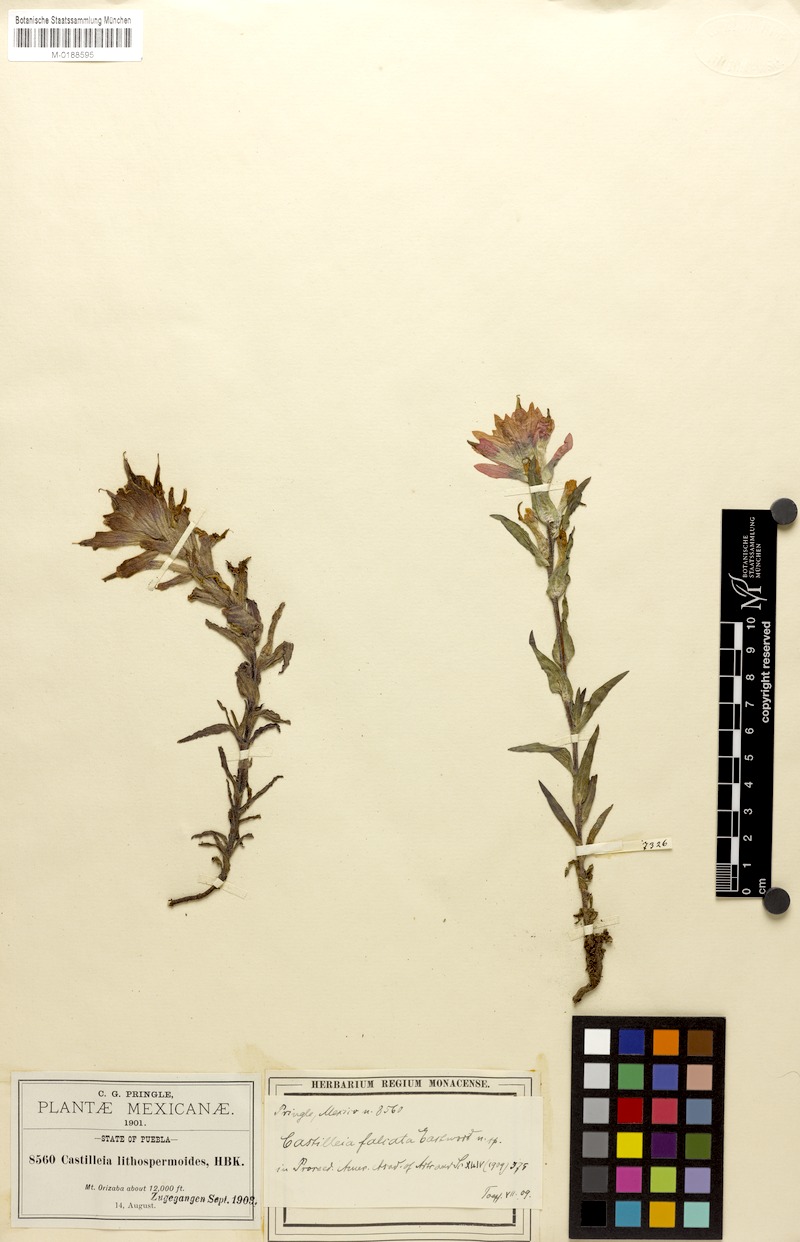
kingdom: Plantae
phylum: Tracheophyta
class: Magnoliopsida
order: Lamiales
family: Orobanchaceae
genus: Castilleja
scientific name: Castilleja falcata
